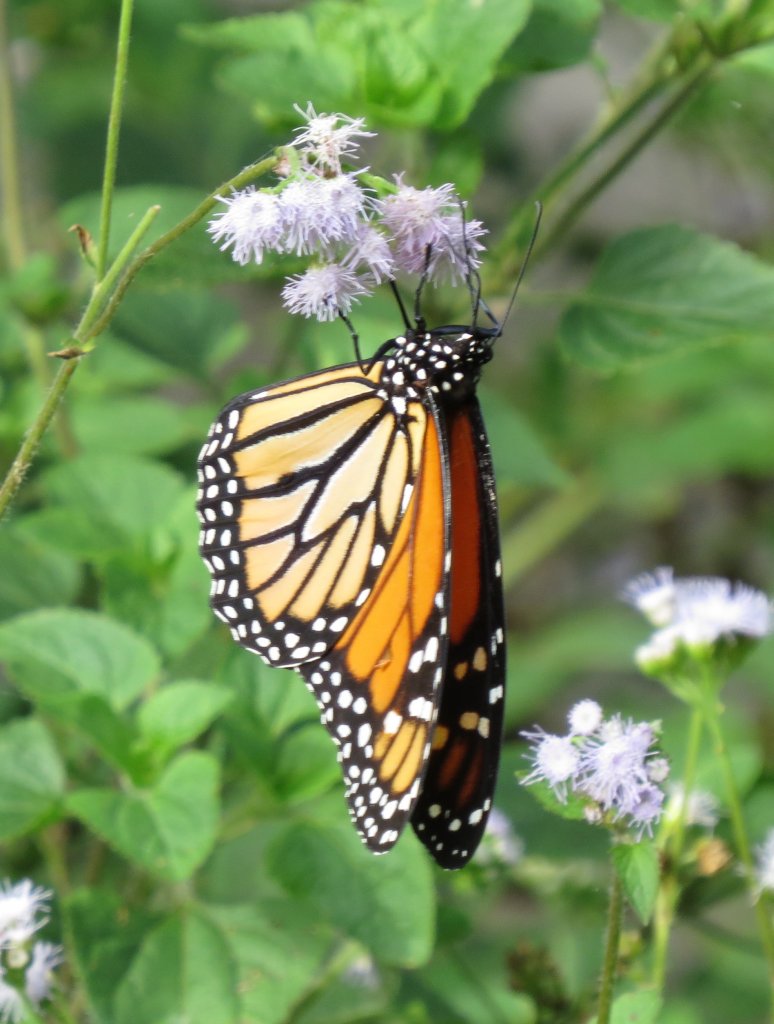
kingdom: Animalia
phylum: Arthropoda
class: Insecta
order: Lepidoptera
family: Nymphalidae
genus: Danaus
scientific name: Danaus plexippus
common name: Monarch
